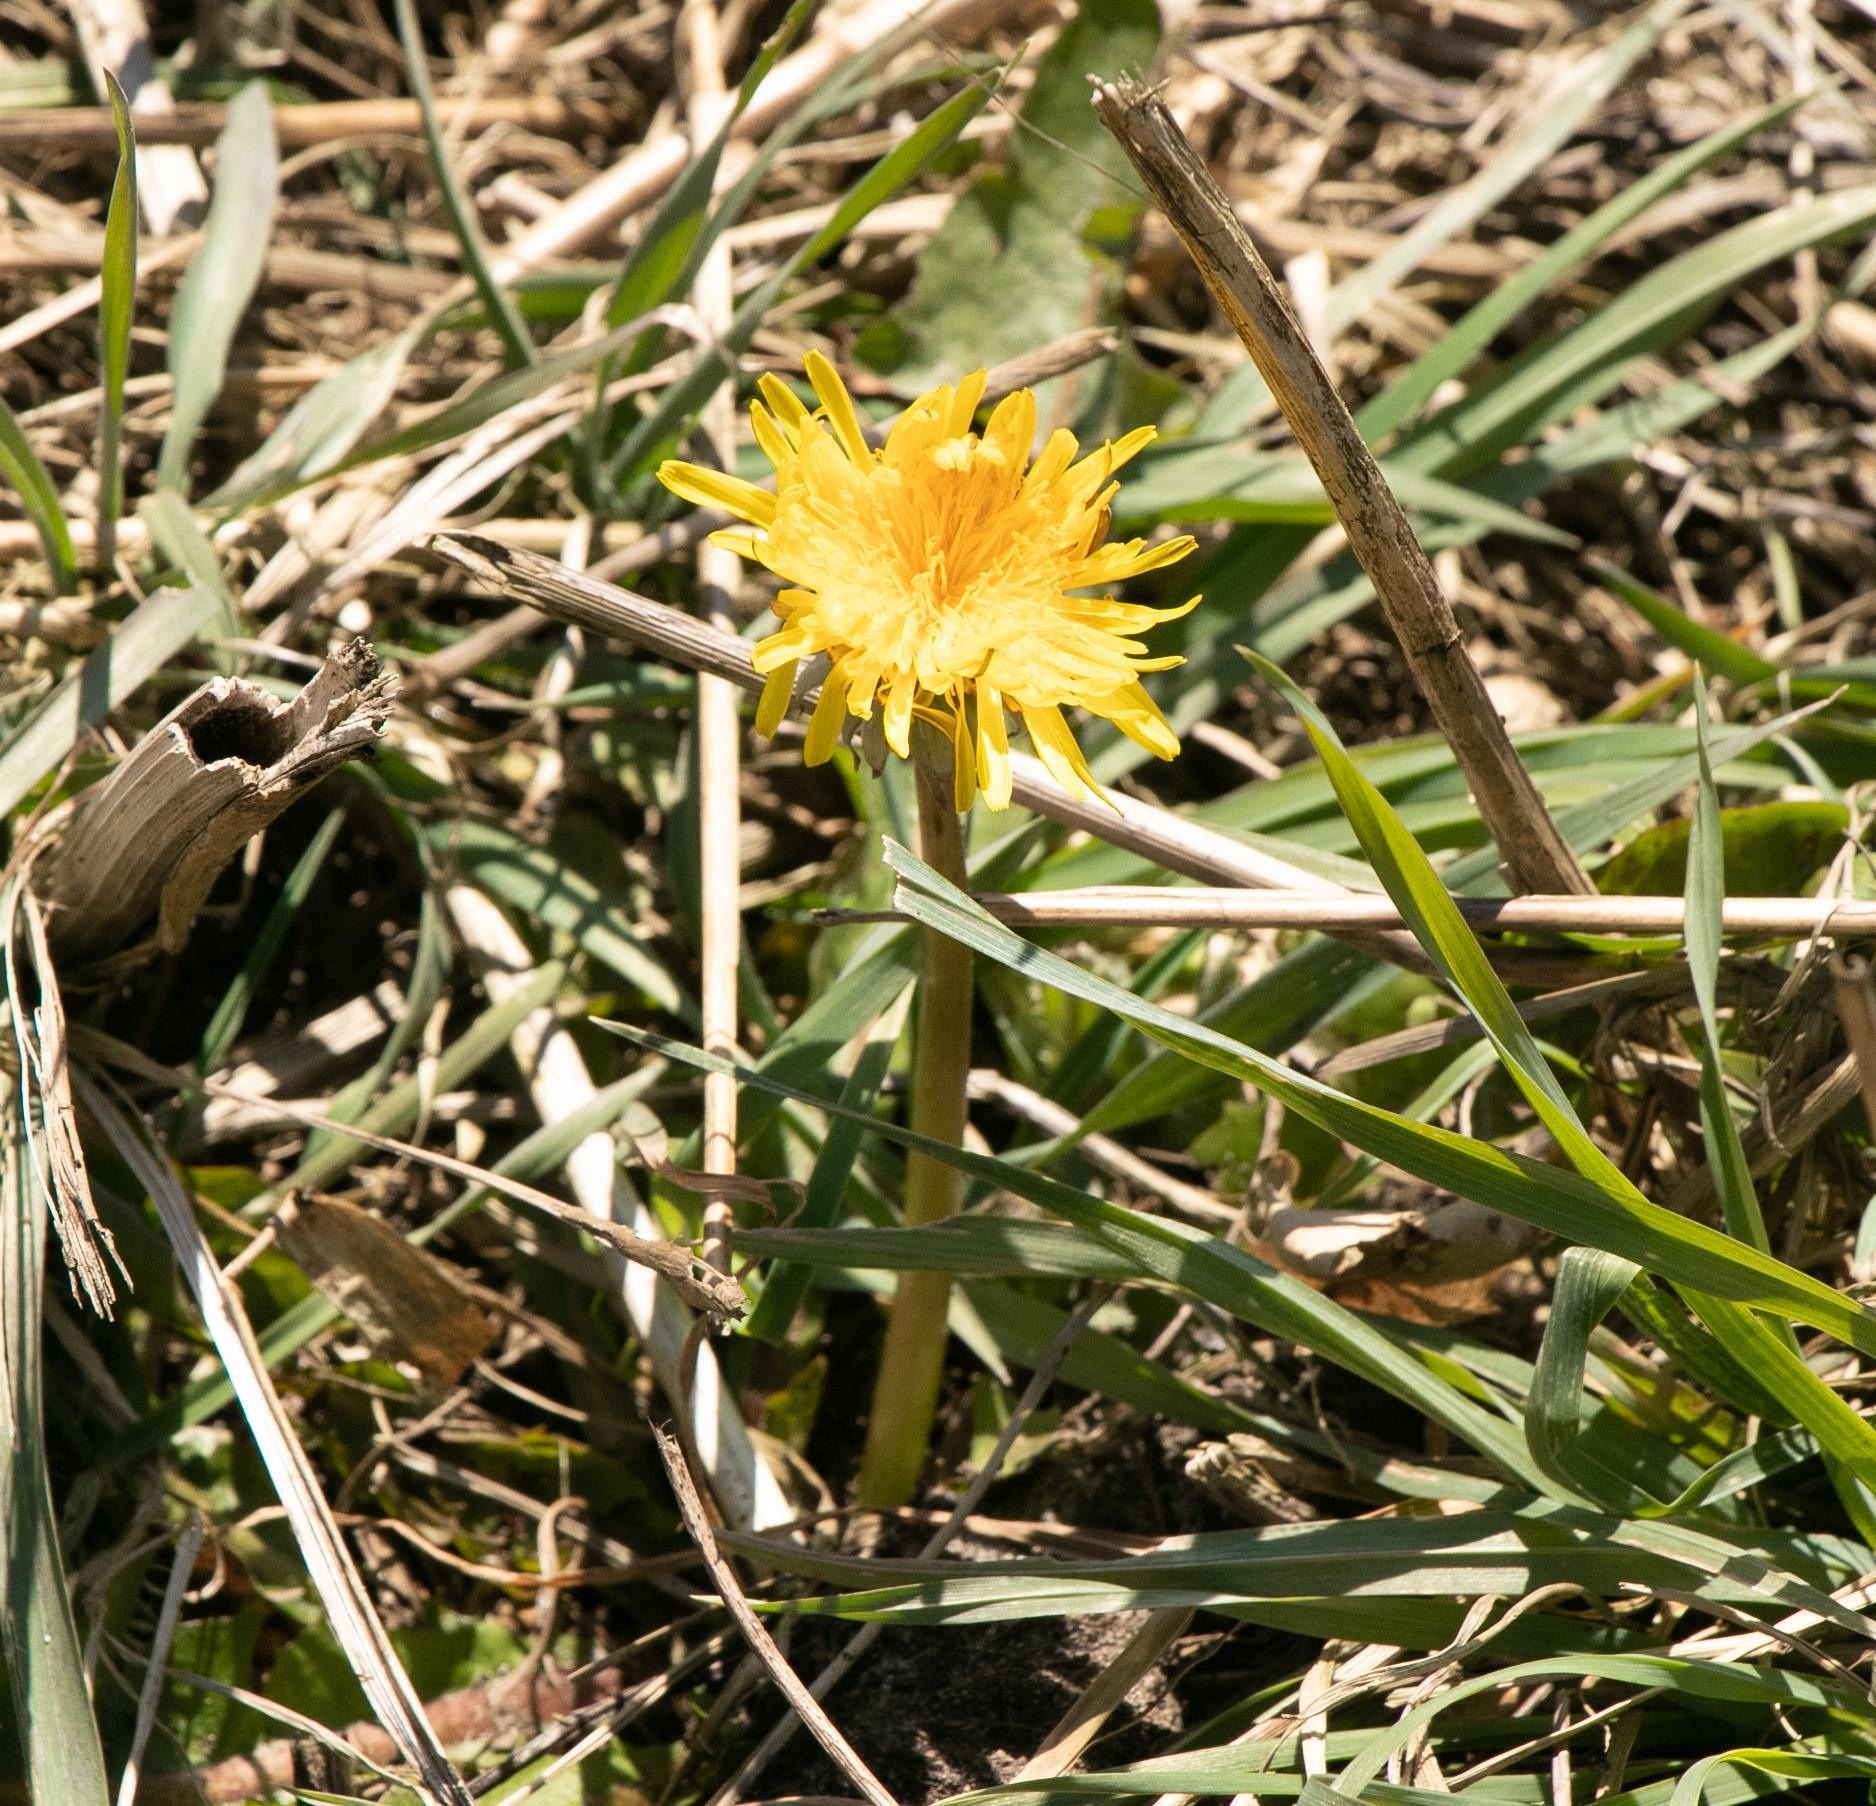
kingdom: Plantae
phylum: Tracheophyta
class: Magnoliopsida
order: Asterales
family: Asteraceae
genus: Taraxacum
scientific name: Taraxacum
